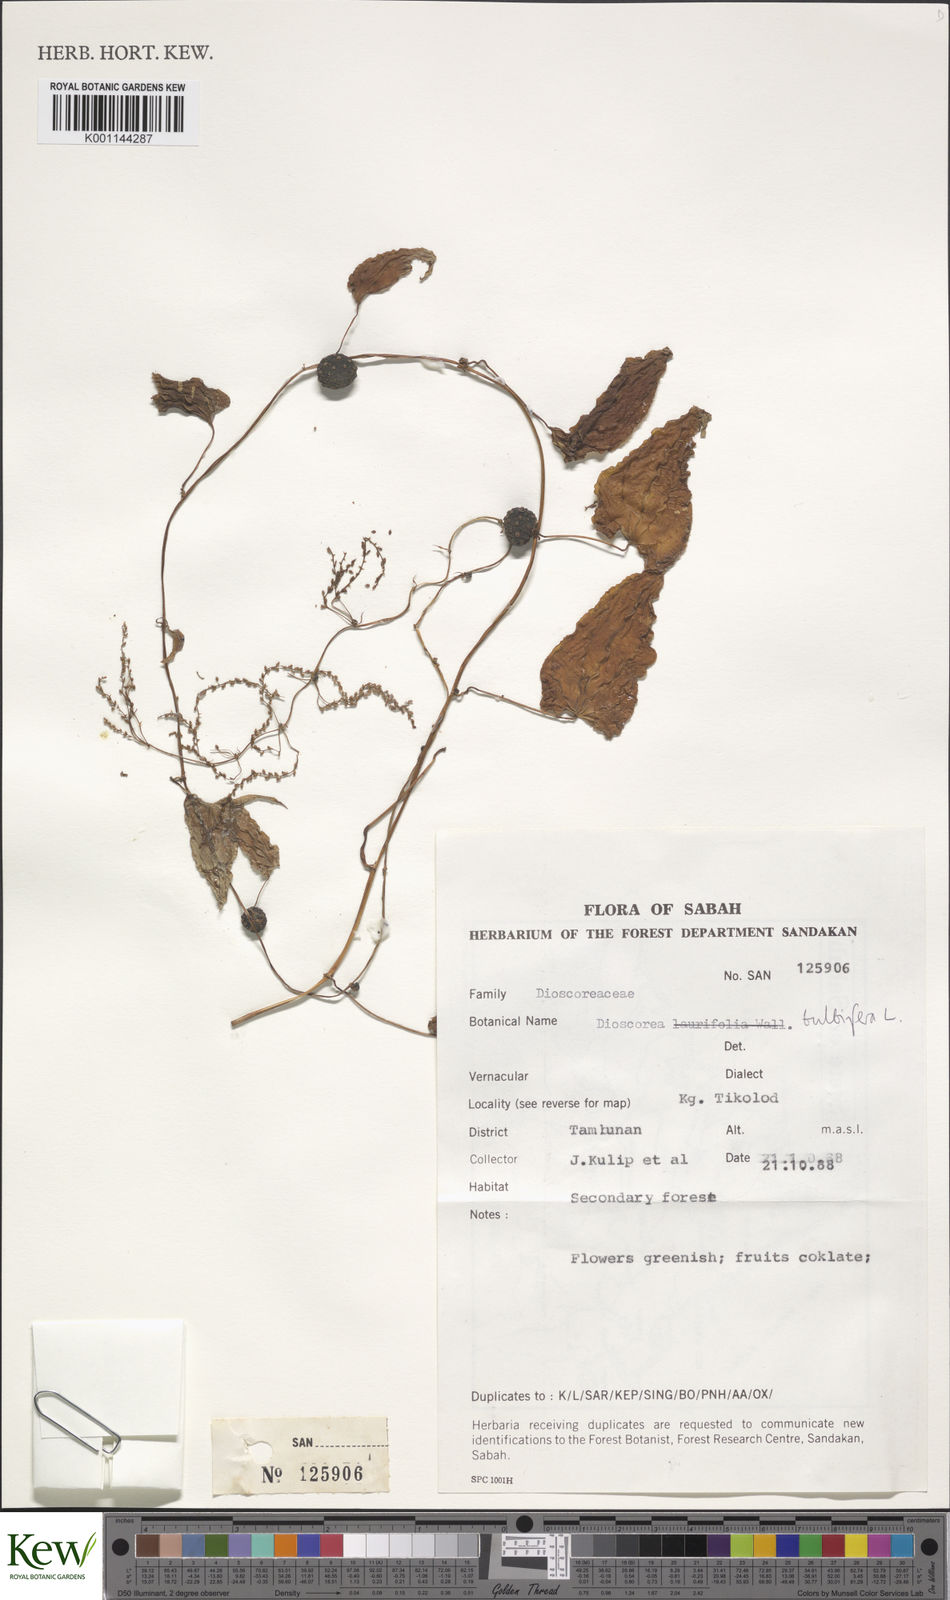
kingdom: Plantae
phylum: Tracheophyta
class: Liliopsida
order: Dioscoreales
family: Dioscoreaceae
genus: Dioscorea
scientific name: Dioscorea bulbifera
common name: Air yam
